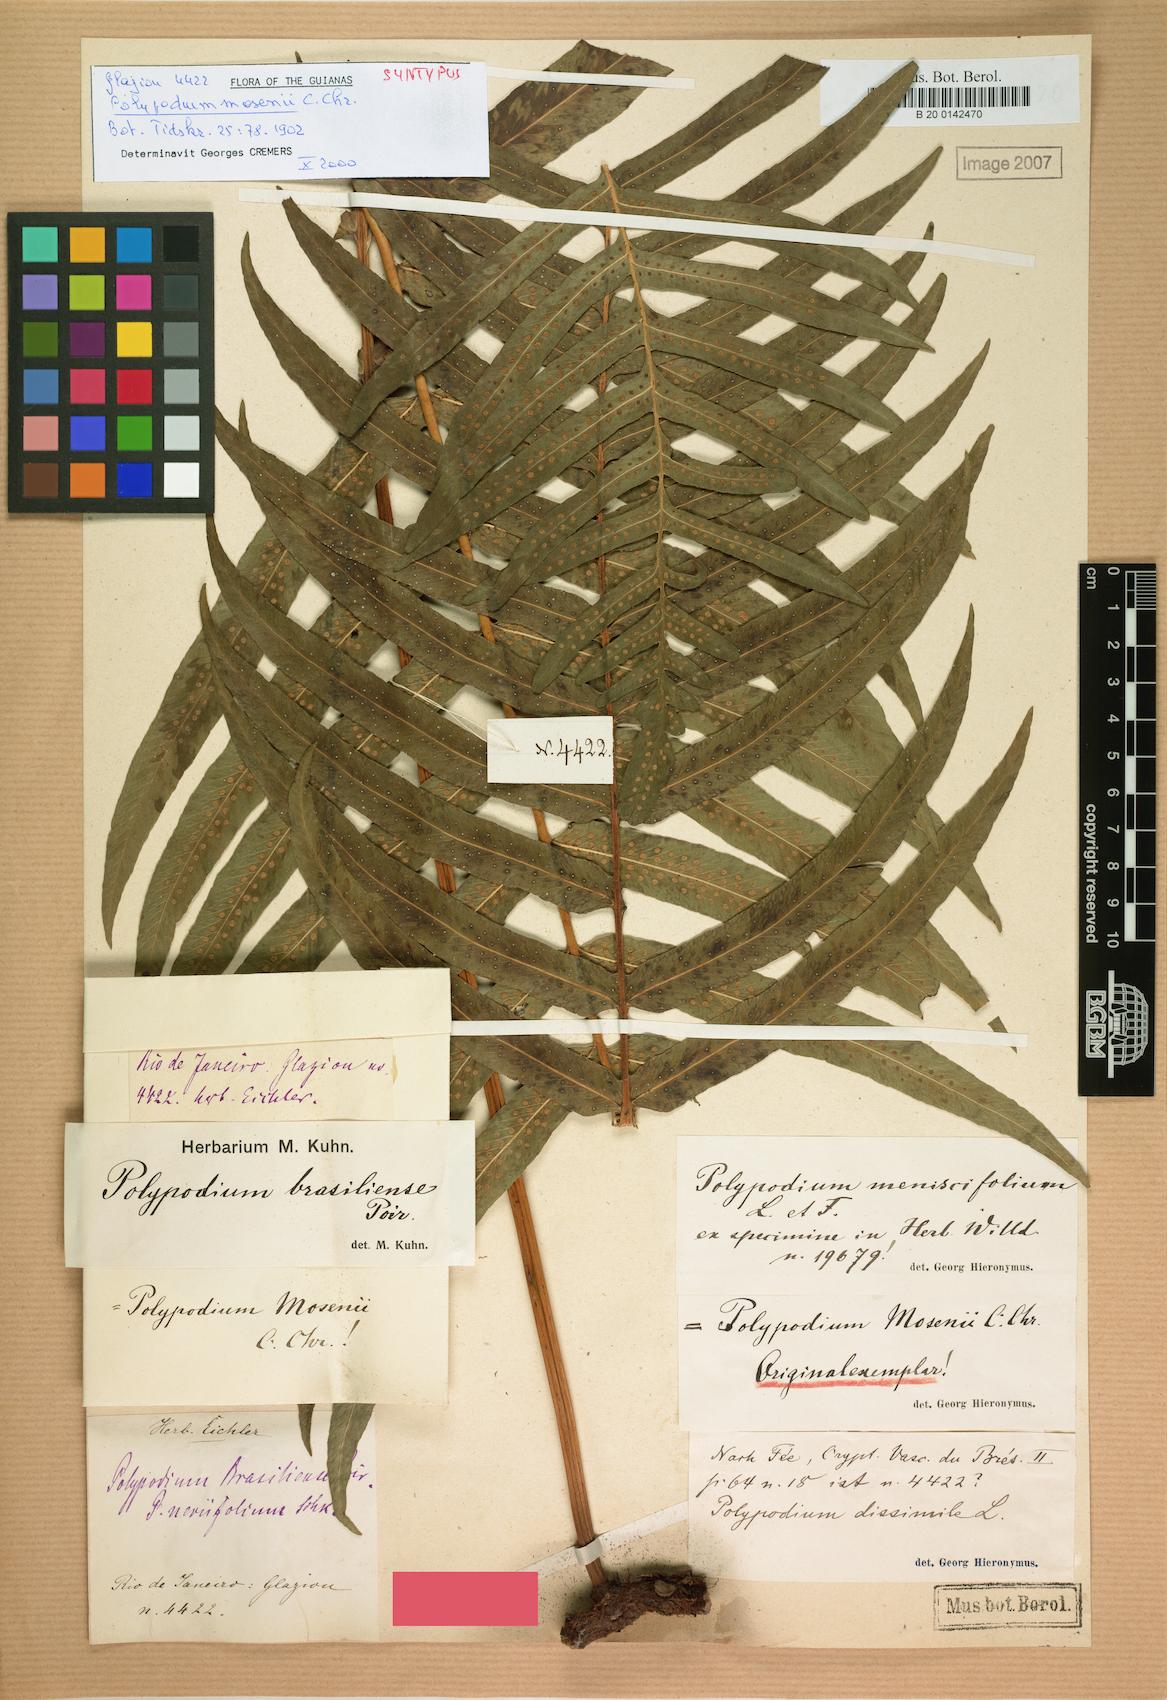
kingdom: Plantae
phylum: Tracheophyta
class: Polypodiopsida
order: Polypodiales
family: Polypodiaceae
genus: Serpocaulon
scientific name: Serpocaulon menisciifolium
